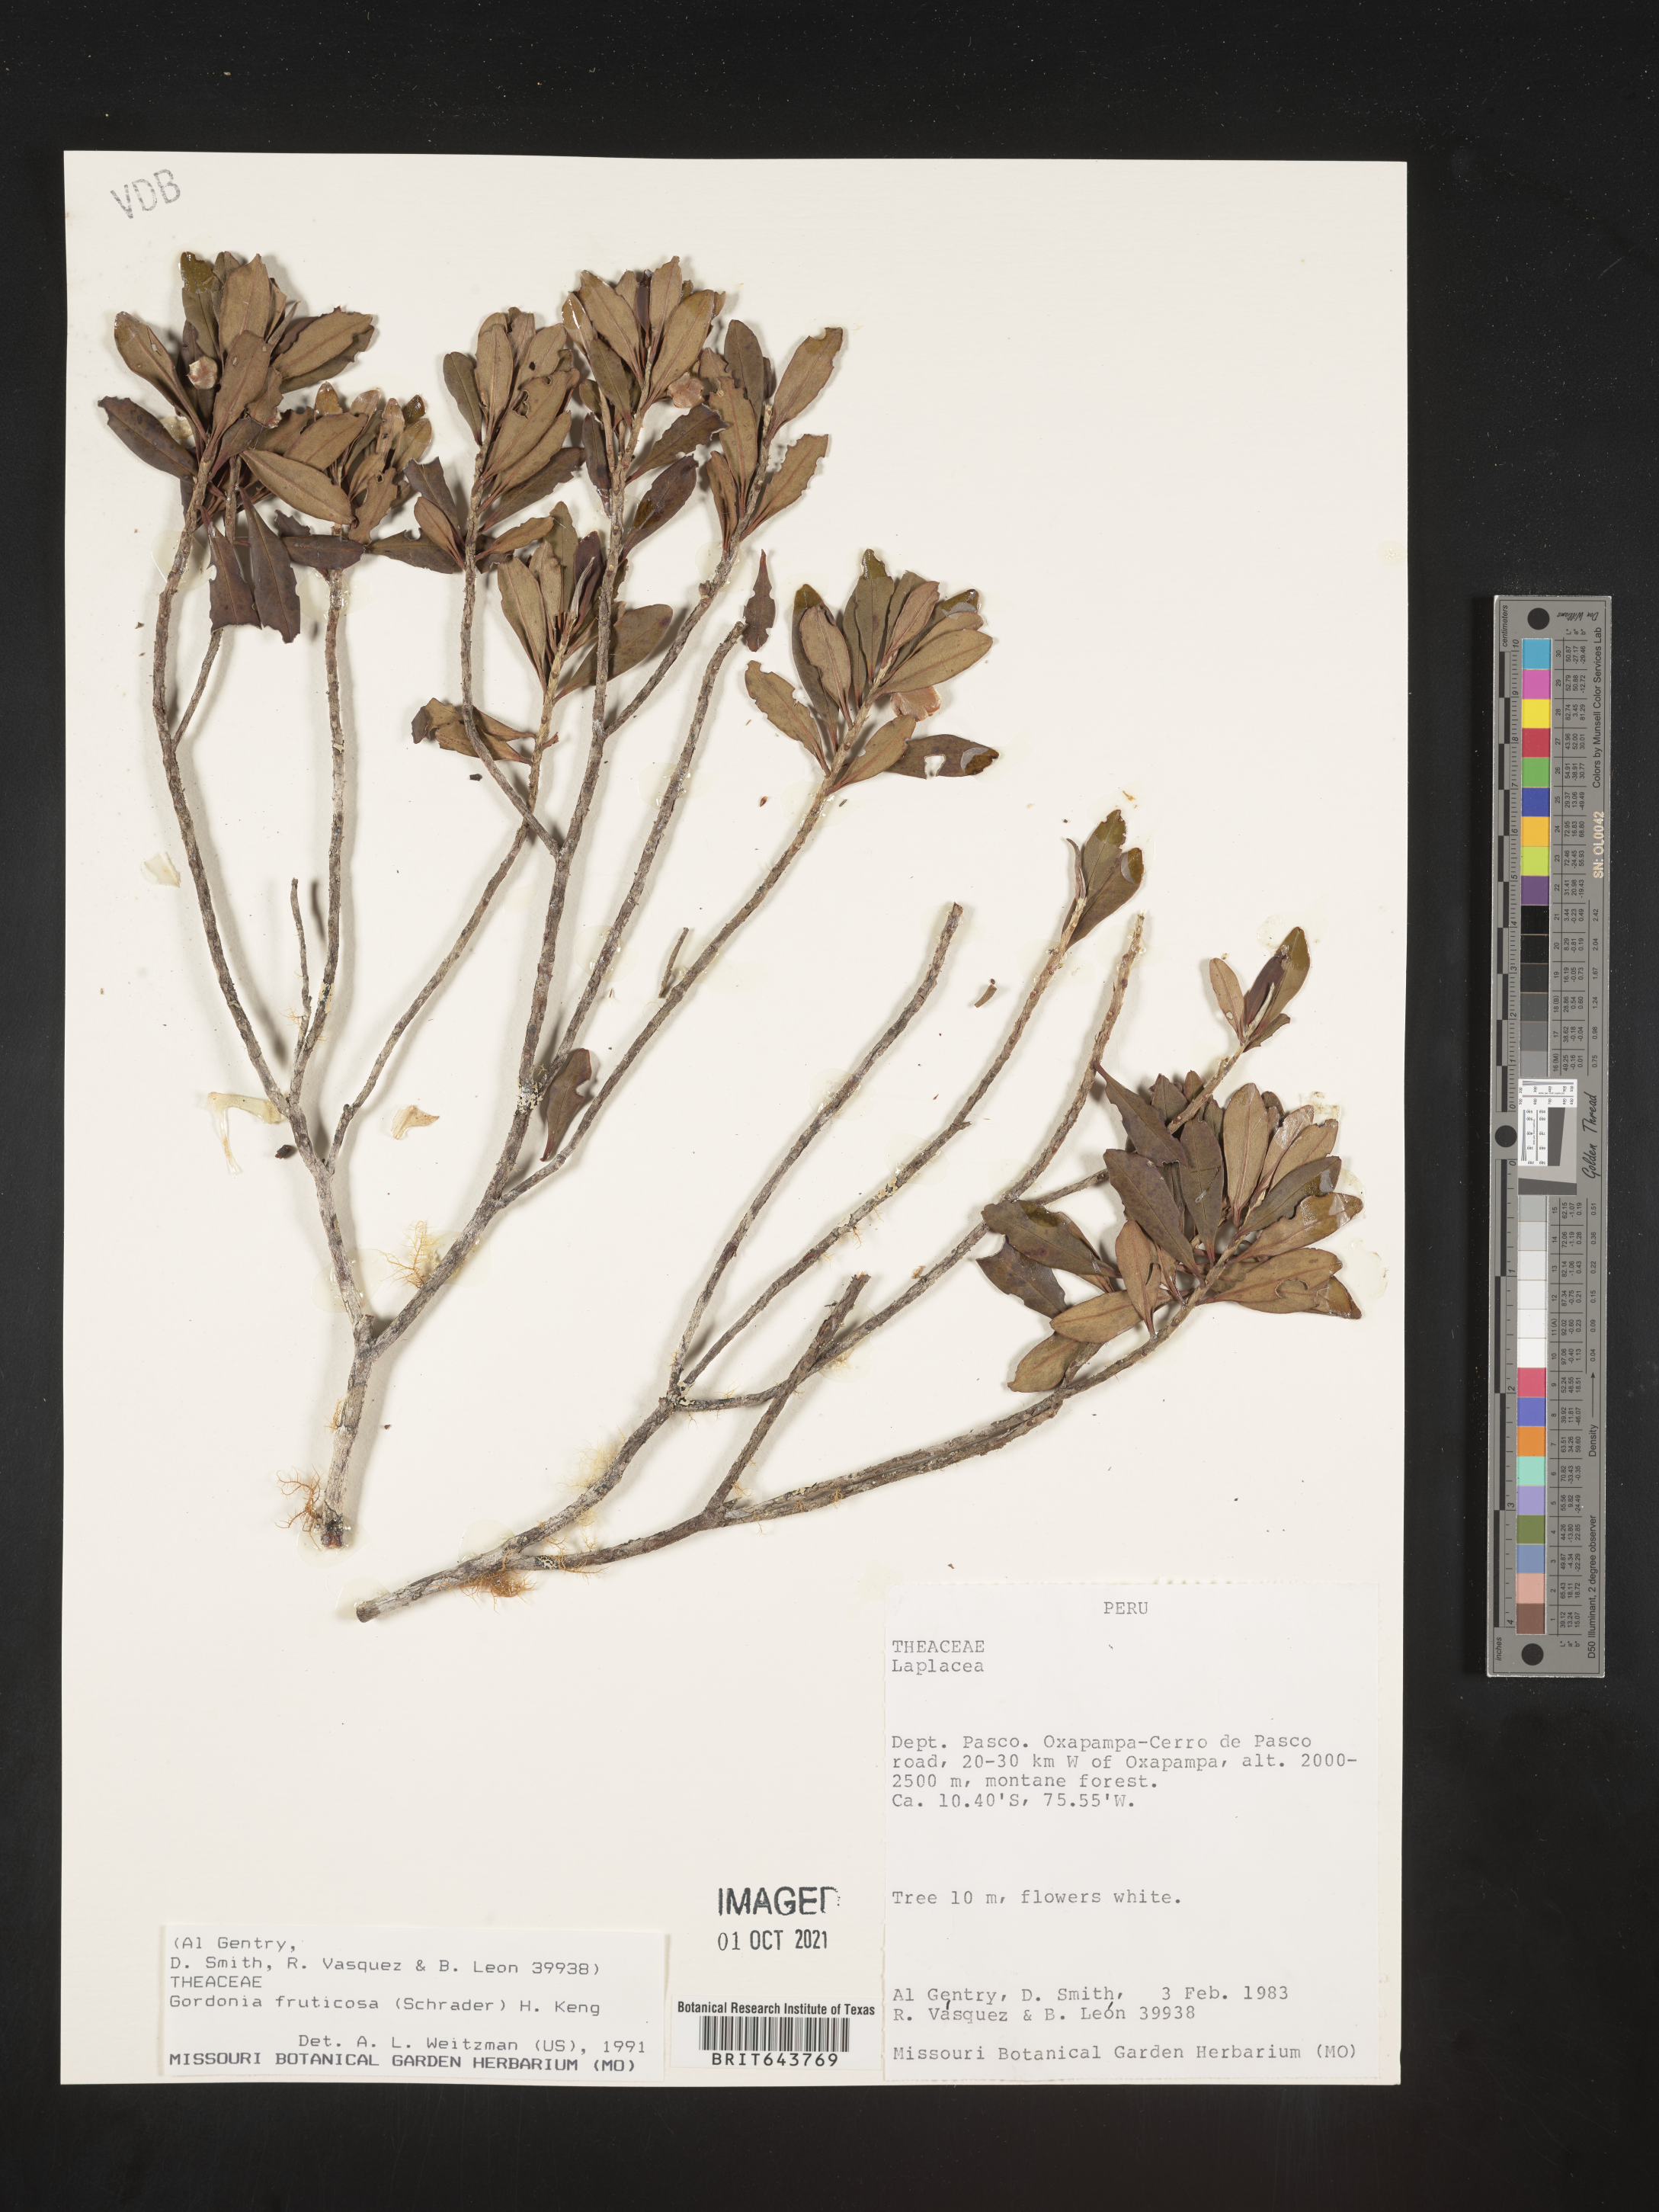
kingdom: Plantae
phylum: Tracheophyta
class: Magnoliopsida
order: Ericales
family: Theaceae
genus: Gordonia
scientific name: Gordonia
